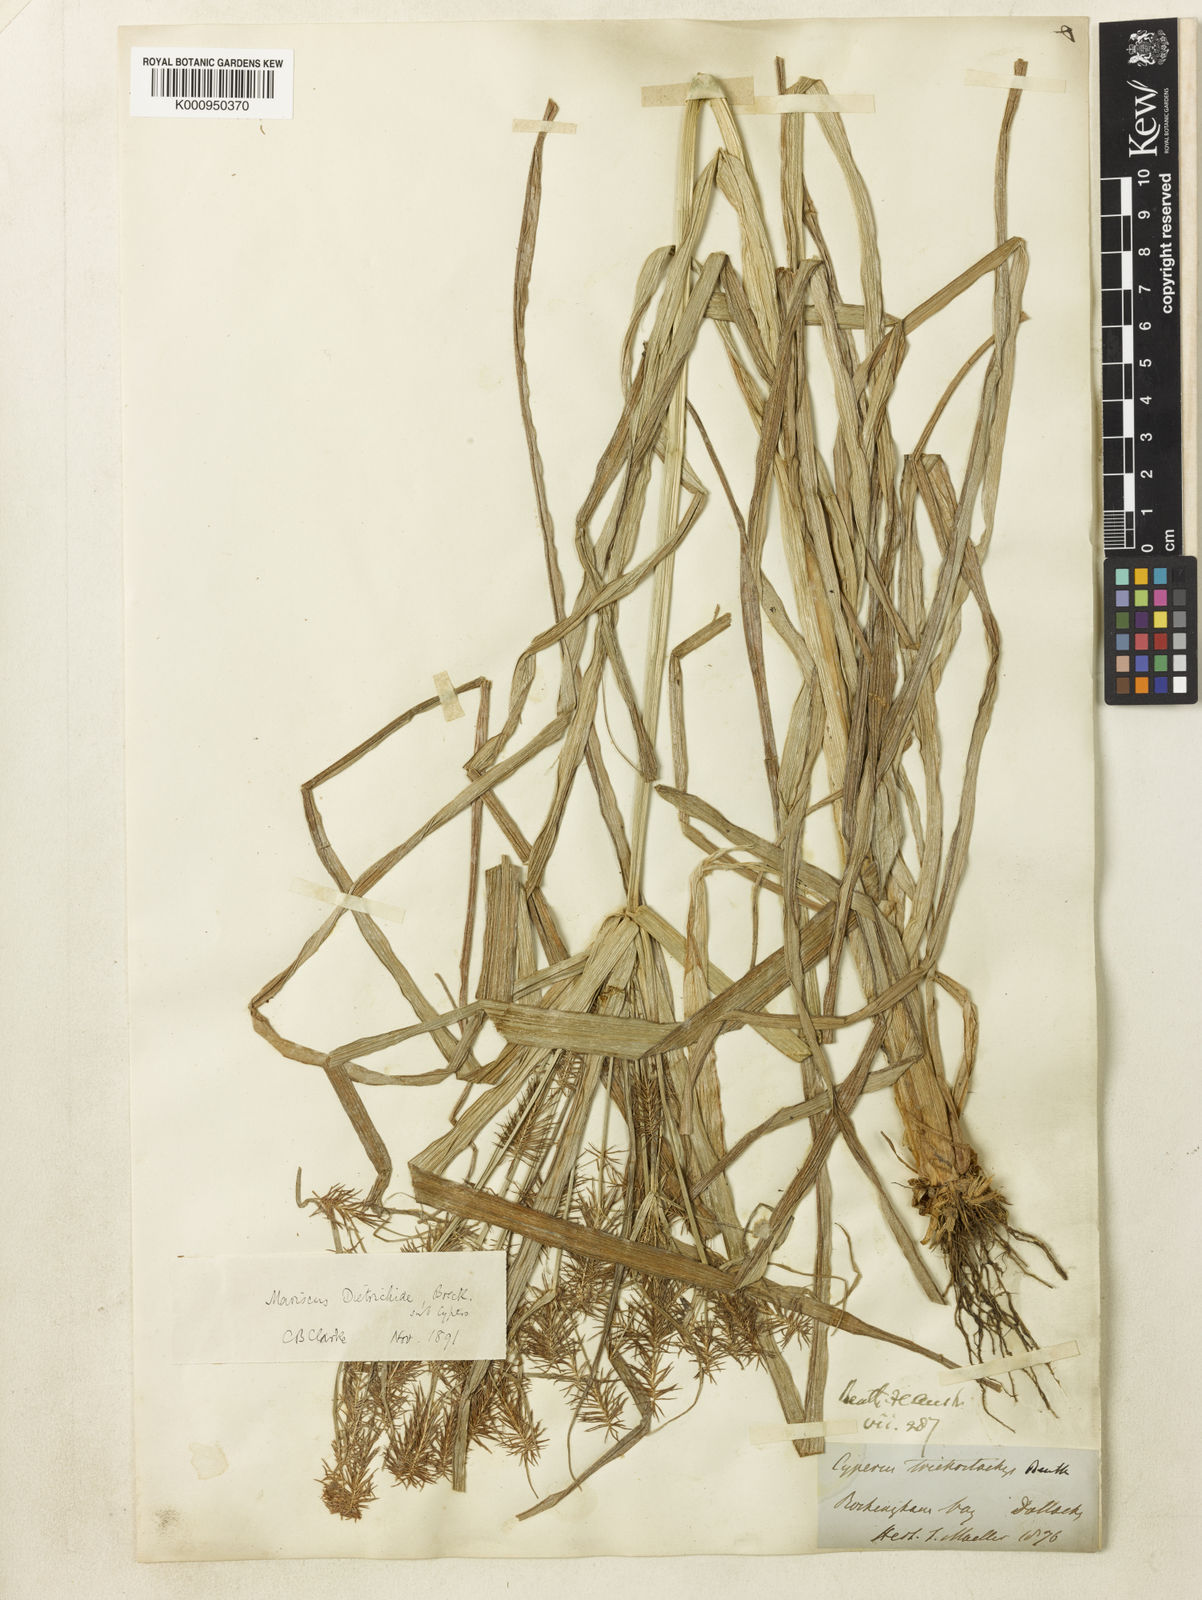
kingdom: Plantae
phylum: Tracheophyta
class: Liliopsida
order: Poales
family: Cyperaceae
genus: Cyperus
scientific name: Cyperus dietrichiae
